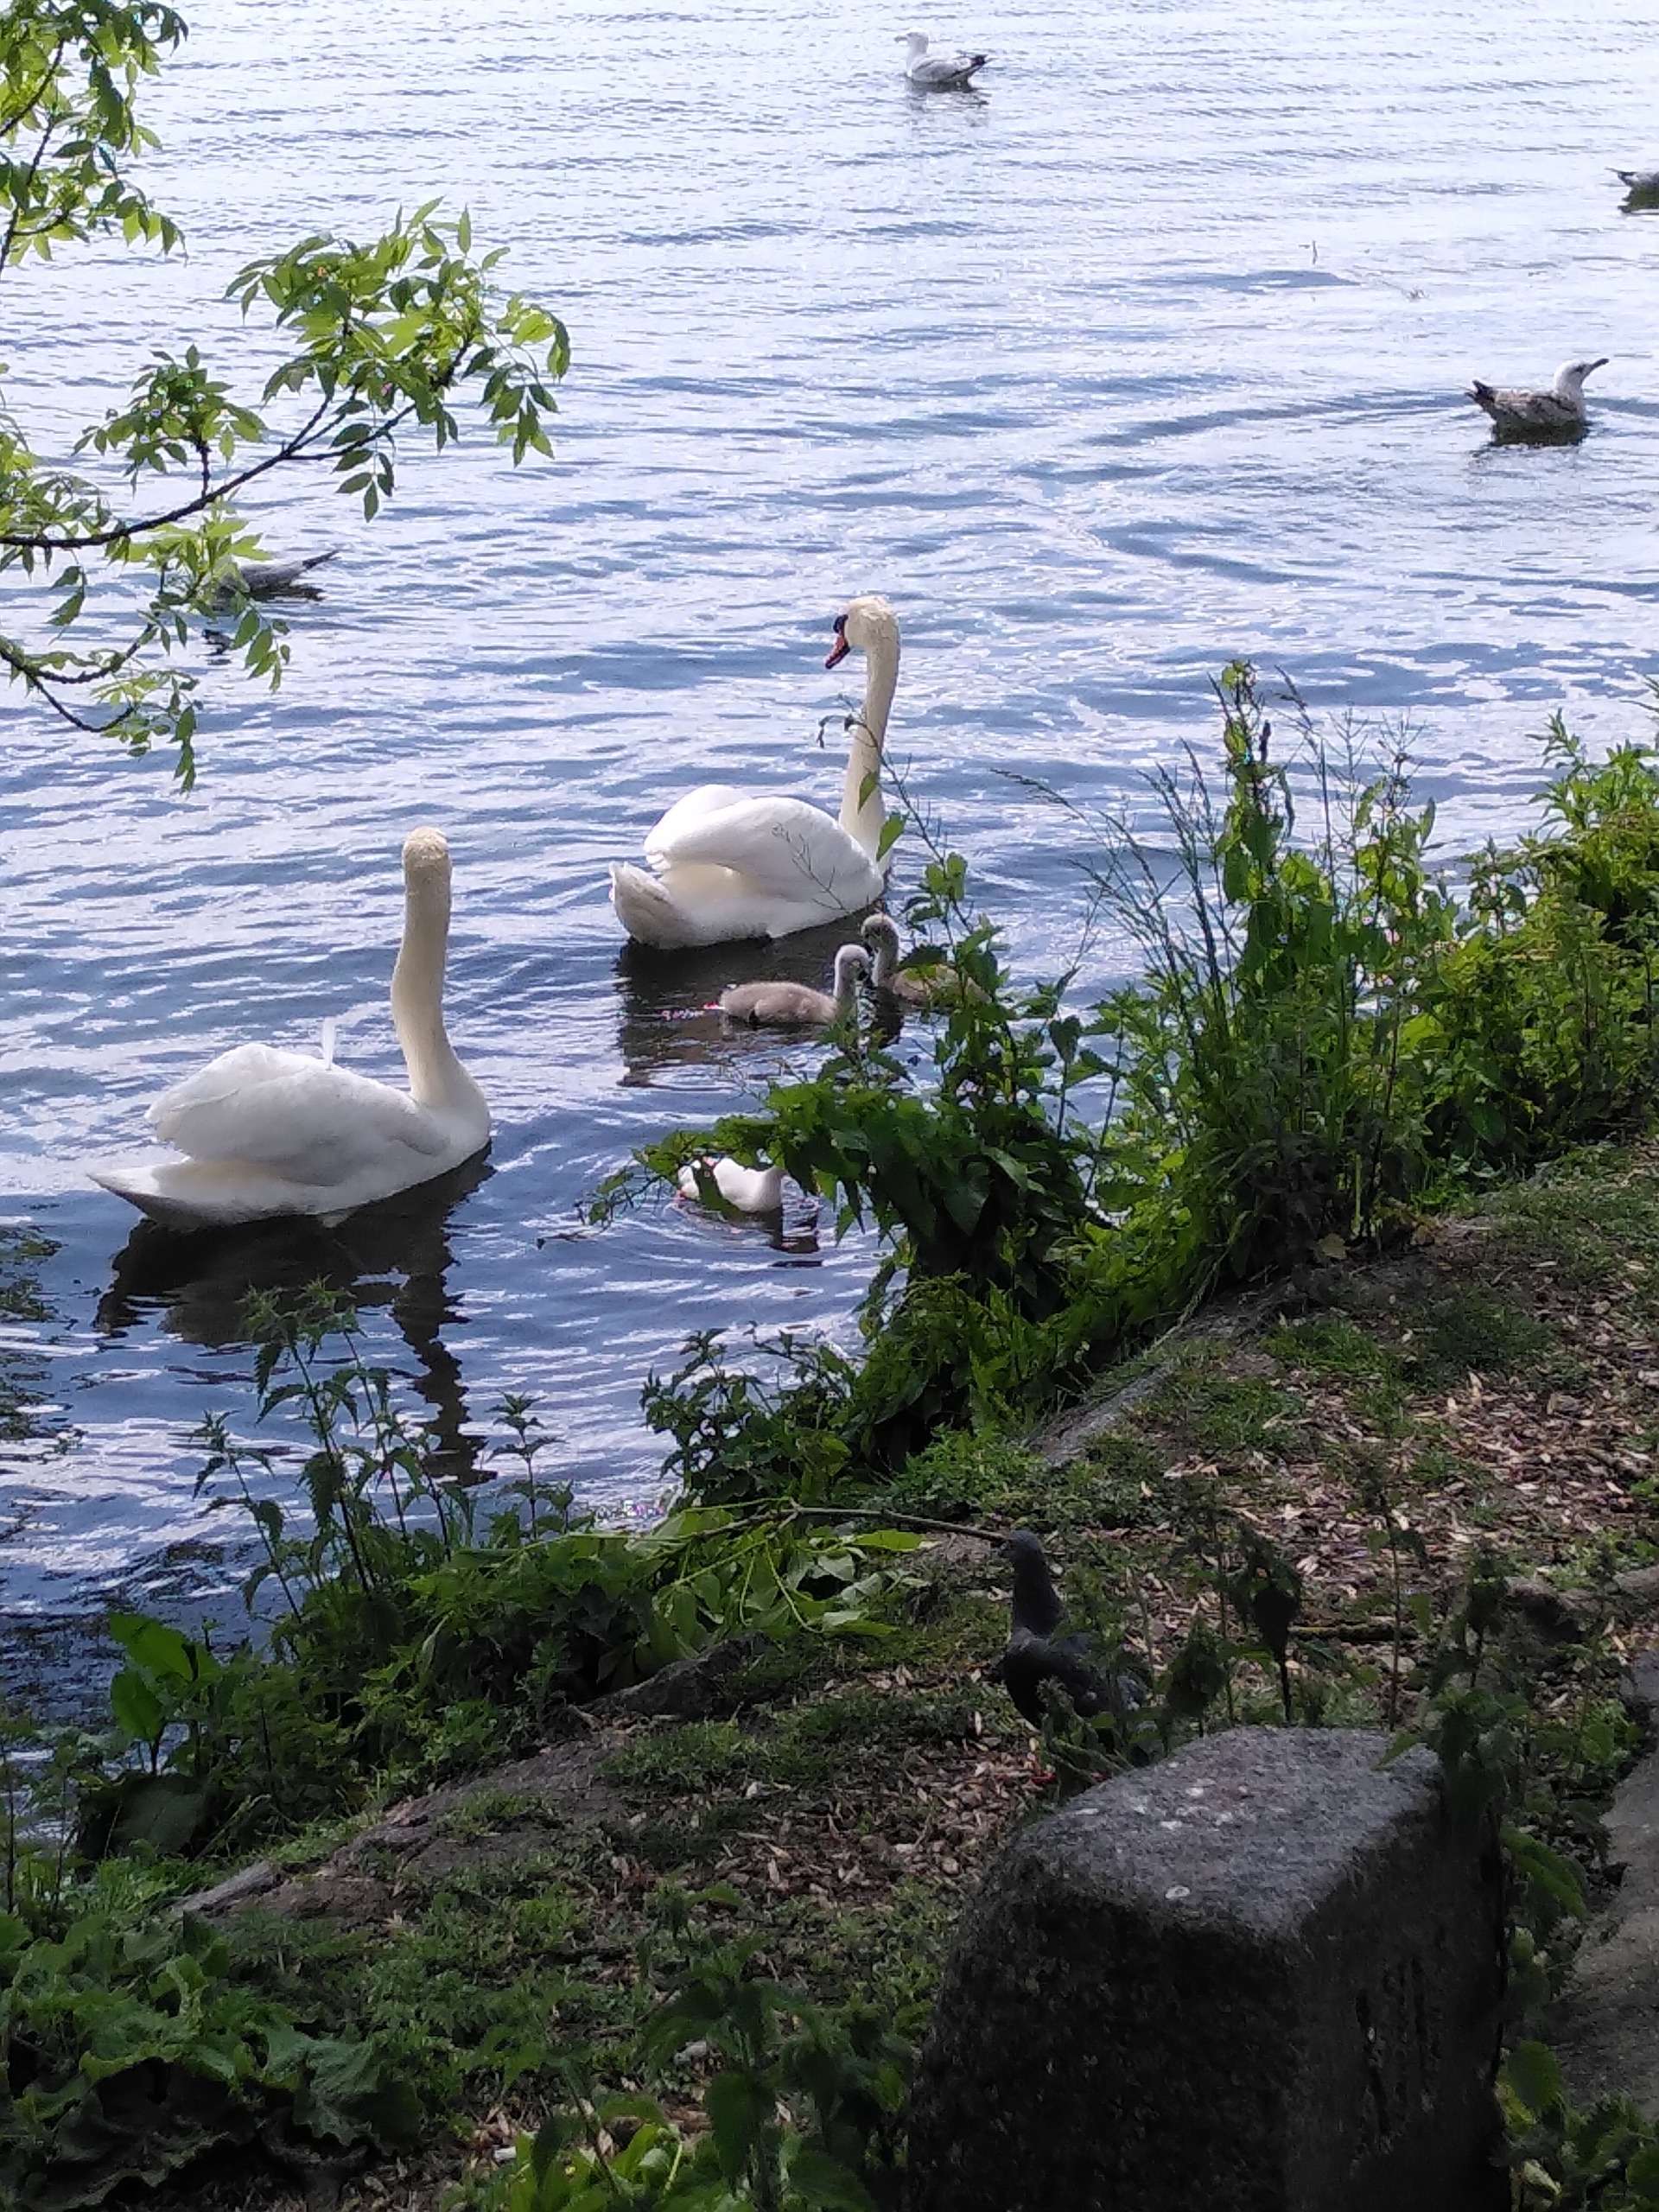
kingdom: Animalia
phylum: Chordata
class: Aves
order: Anseriformes
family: Anatidae
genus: Cygnus
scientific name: Cygnus olor
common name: Knopsvane
